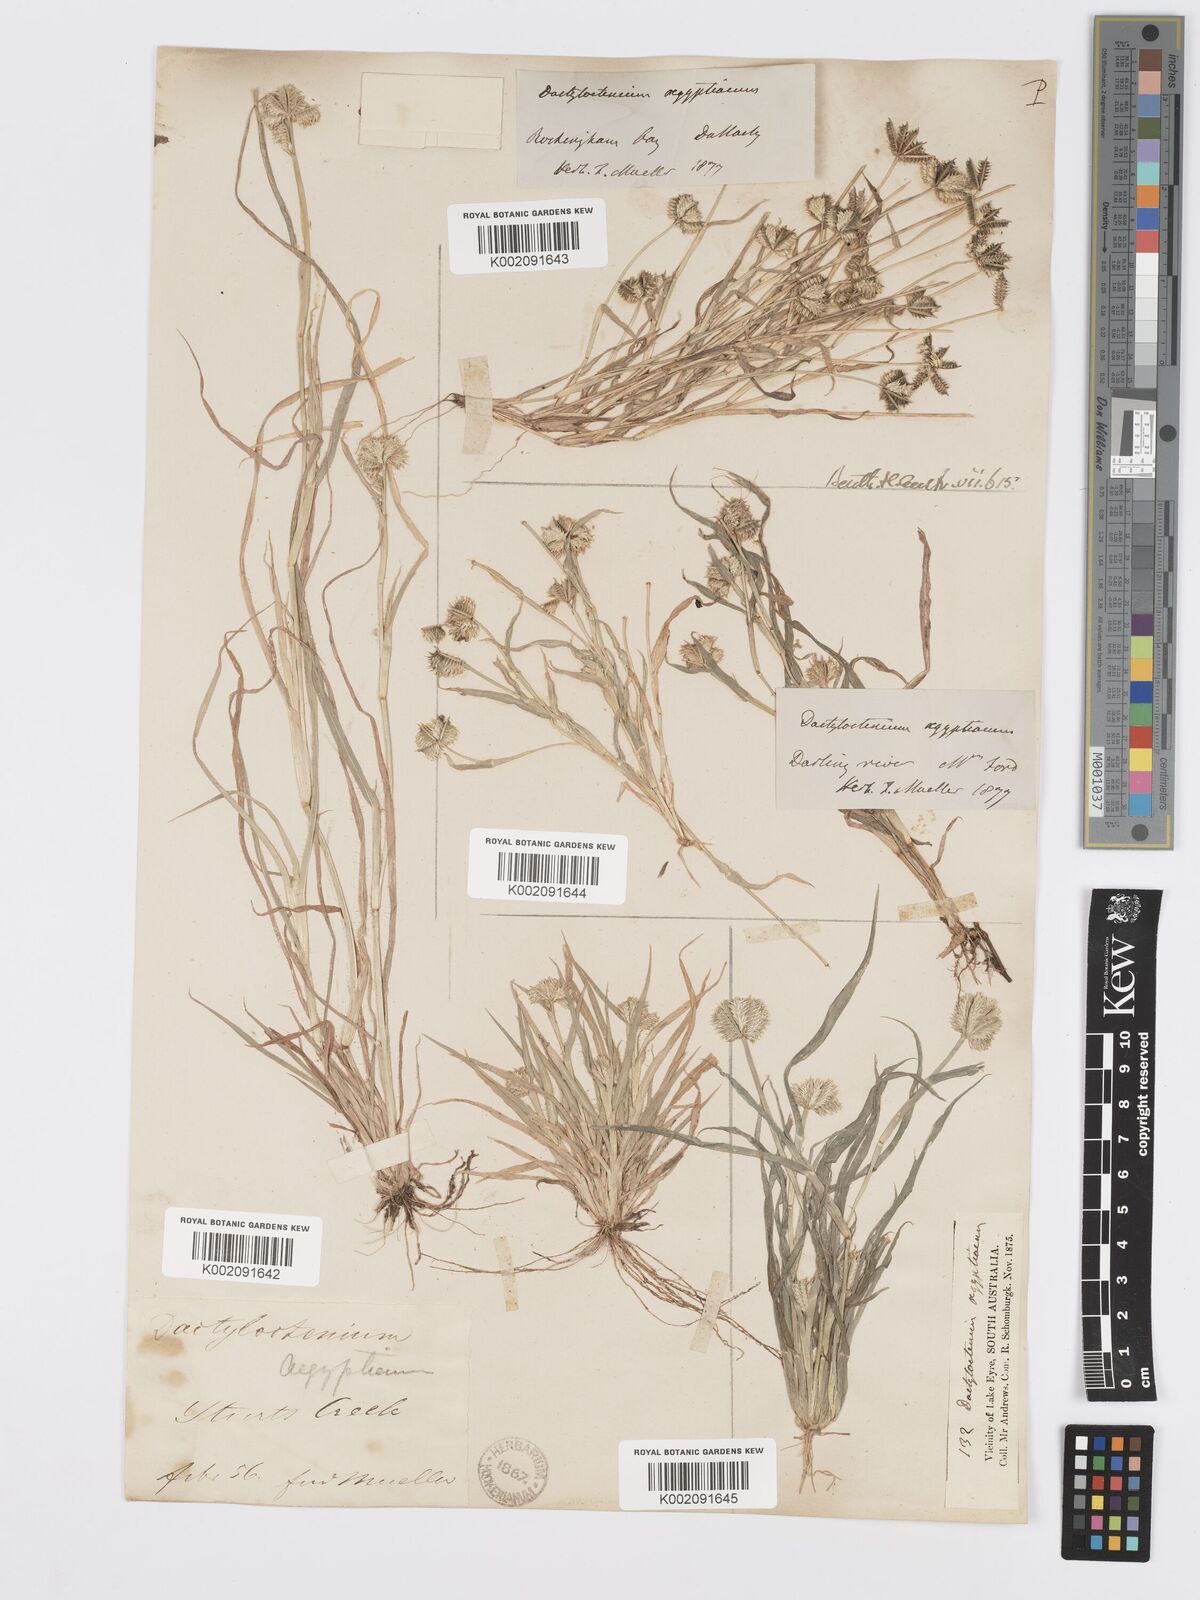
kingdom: Plantae
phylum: Tracheophyta
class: Liliopsida
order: Poales
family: Poaceae
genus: Dactyloctenium
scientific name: Dactyloctenium radulans
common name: Button-grass
